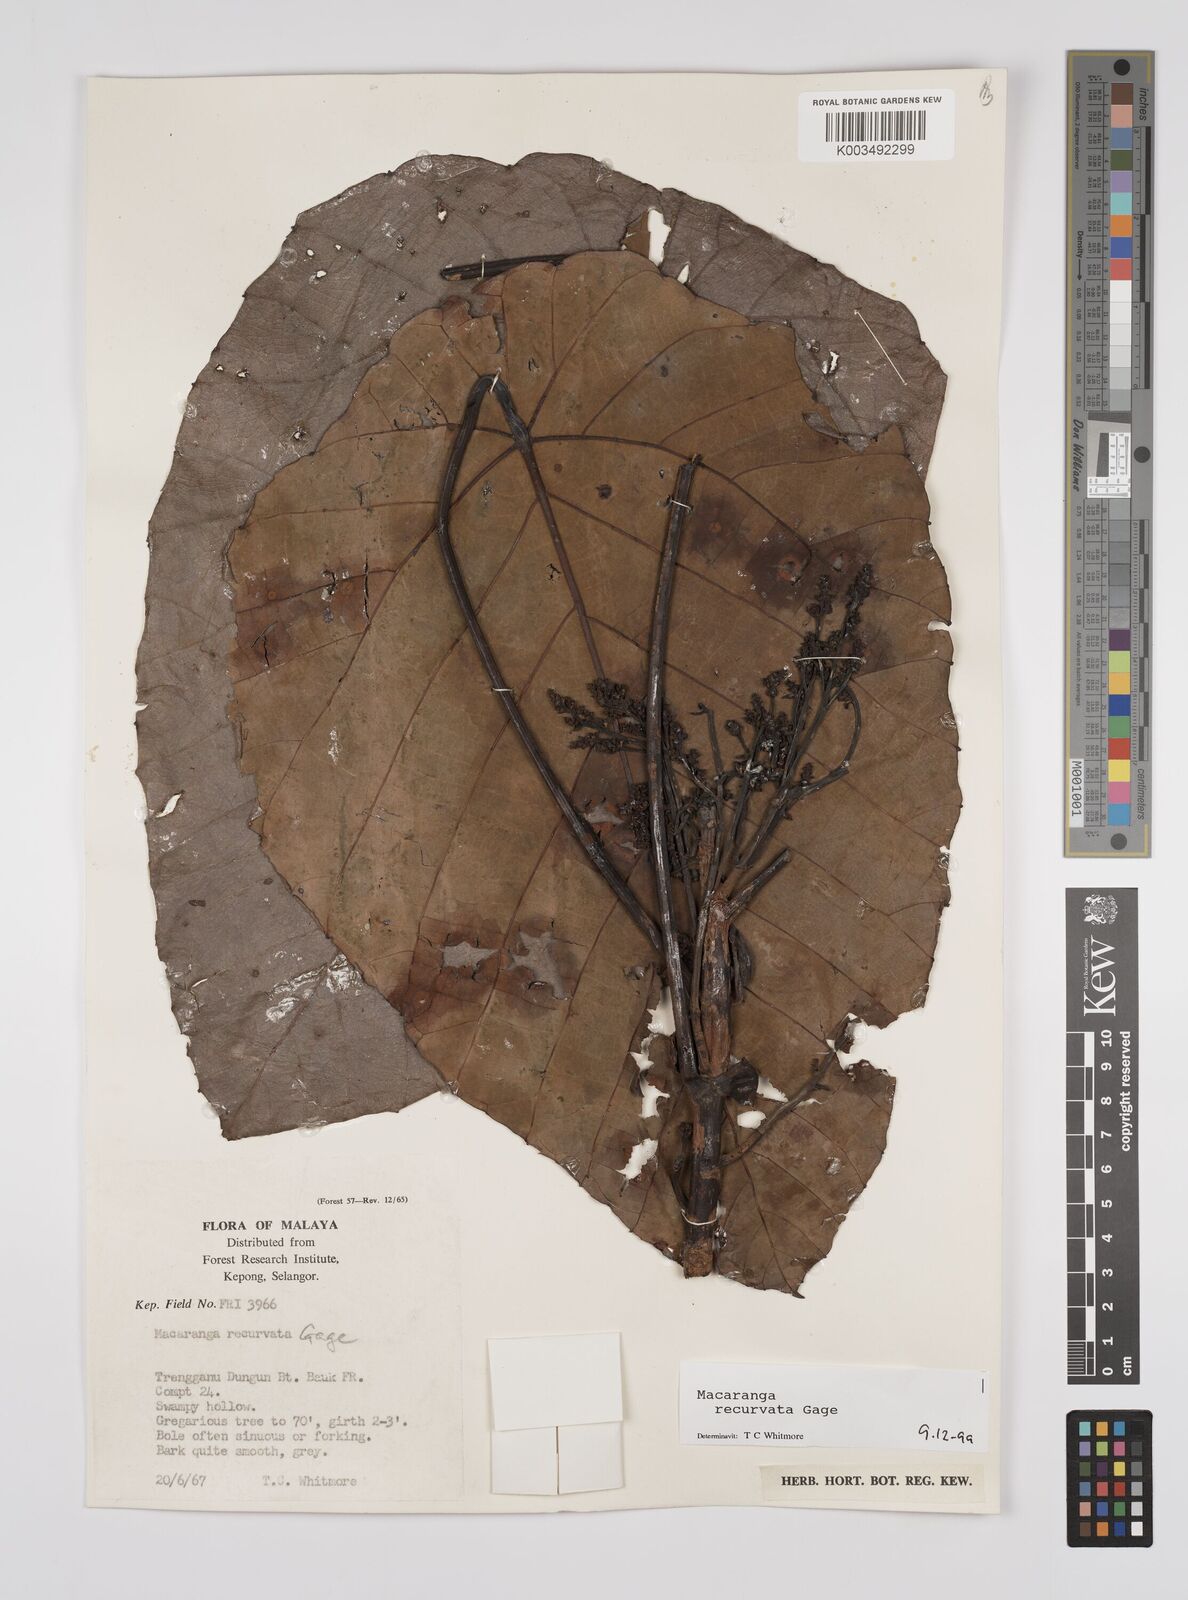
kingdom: Plantae
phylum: Tracheophyta
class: Magnoliopsida
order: Malpighiales
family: Euphorbiaceae
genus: Macaranga
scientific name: Macaranga recurvata
